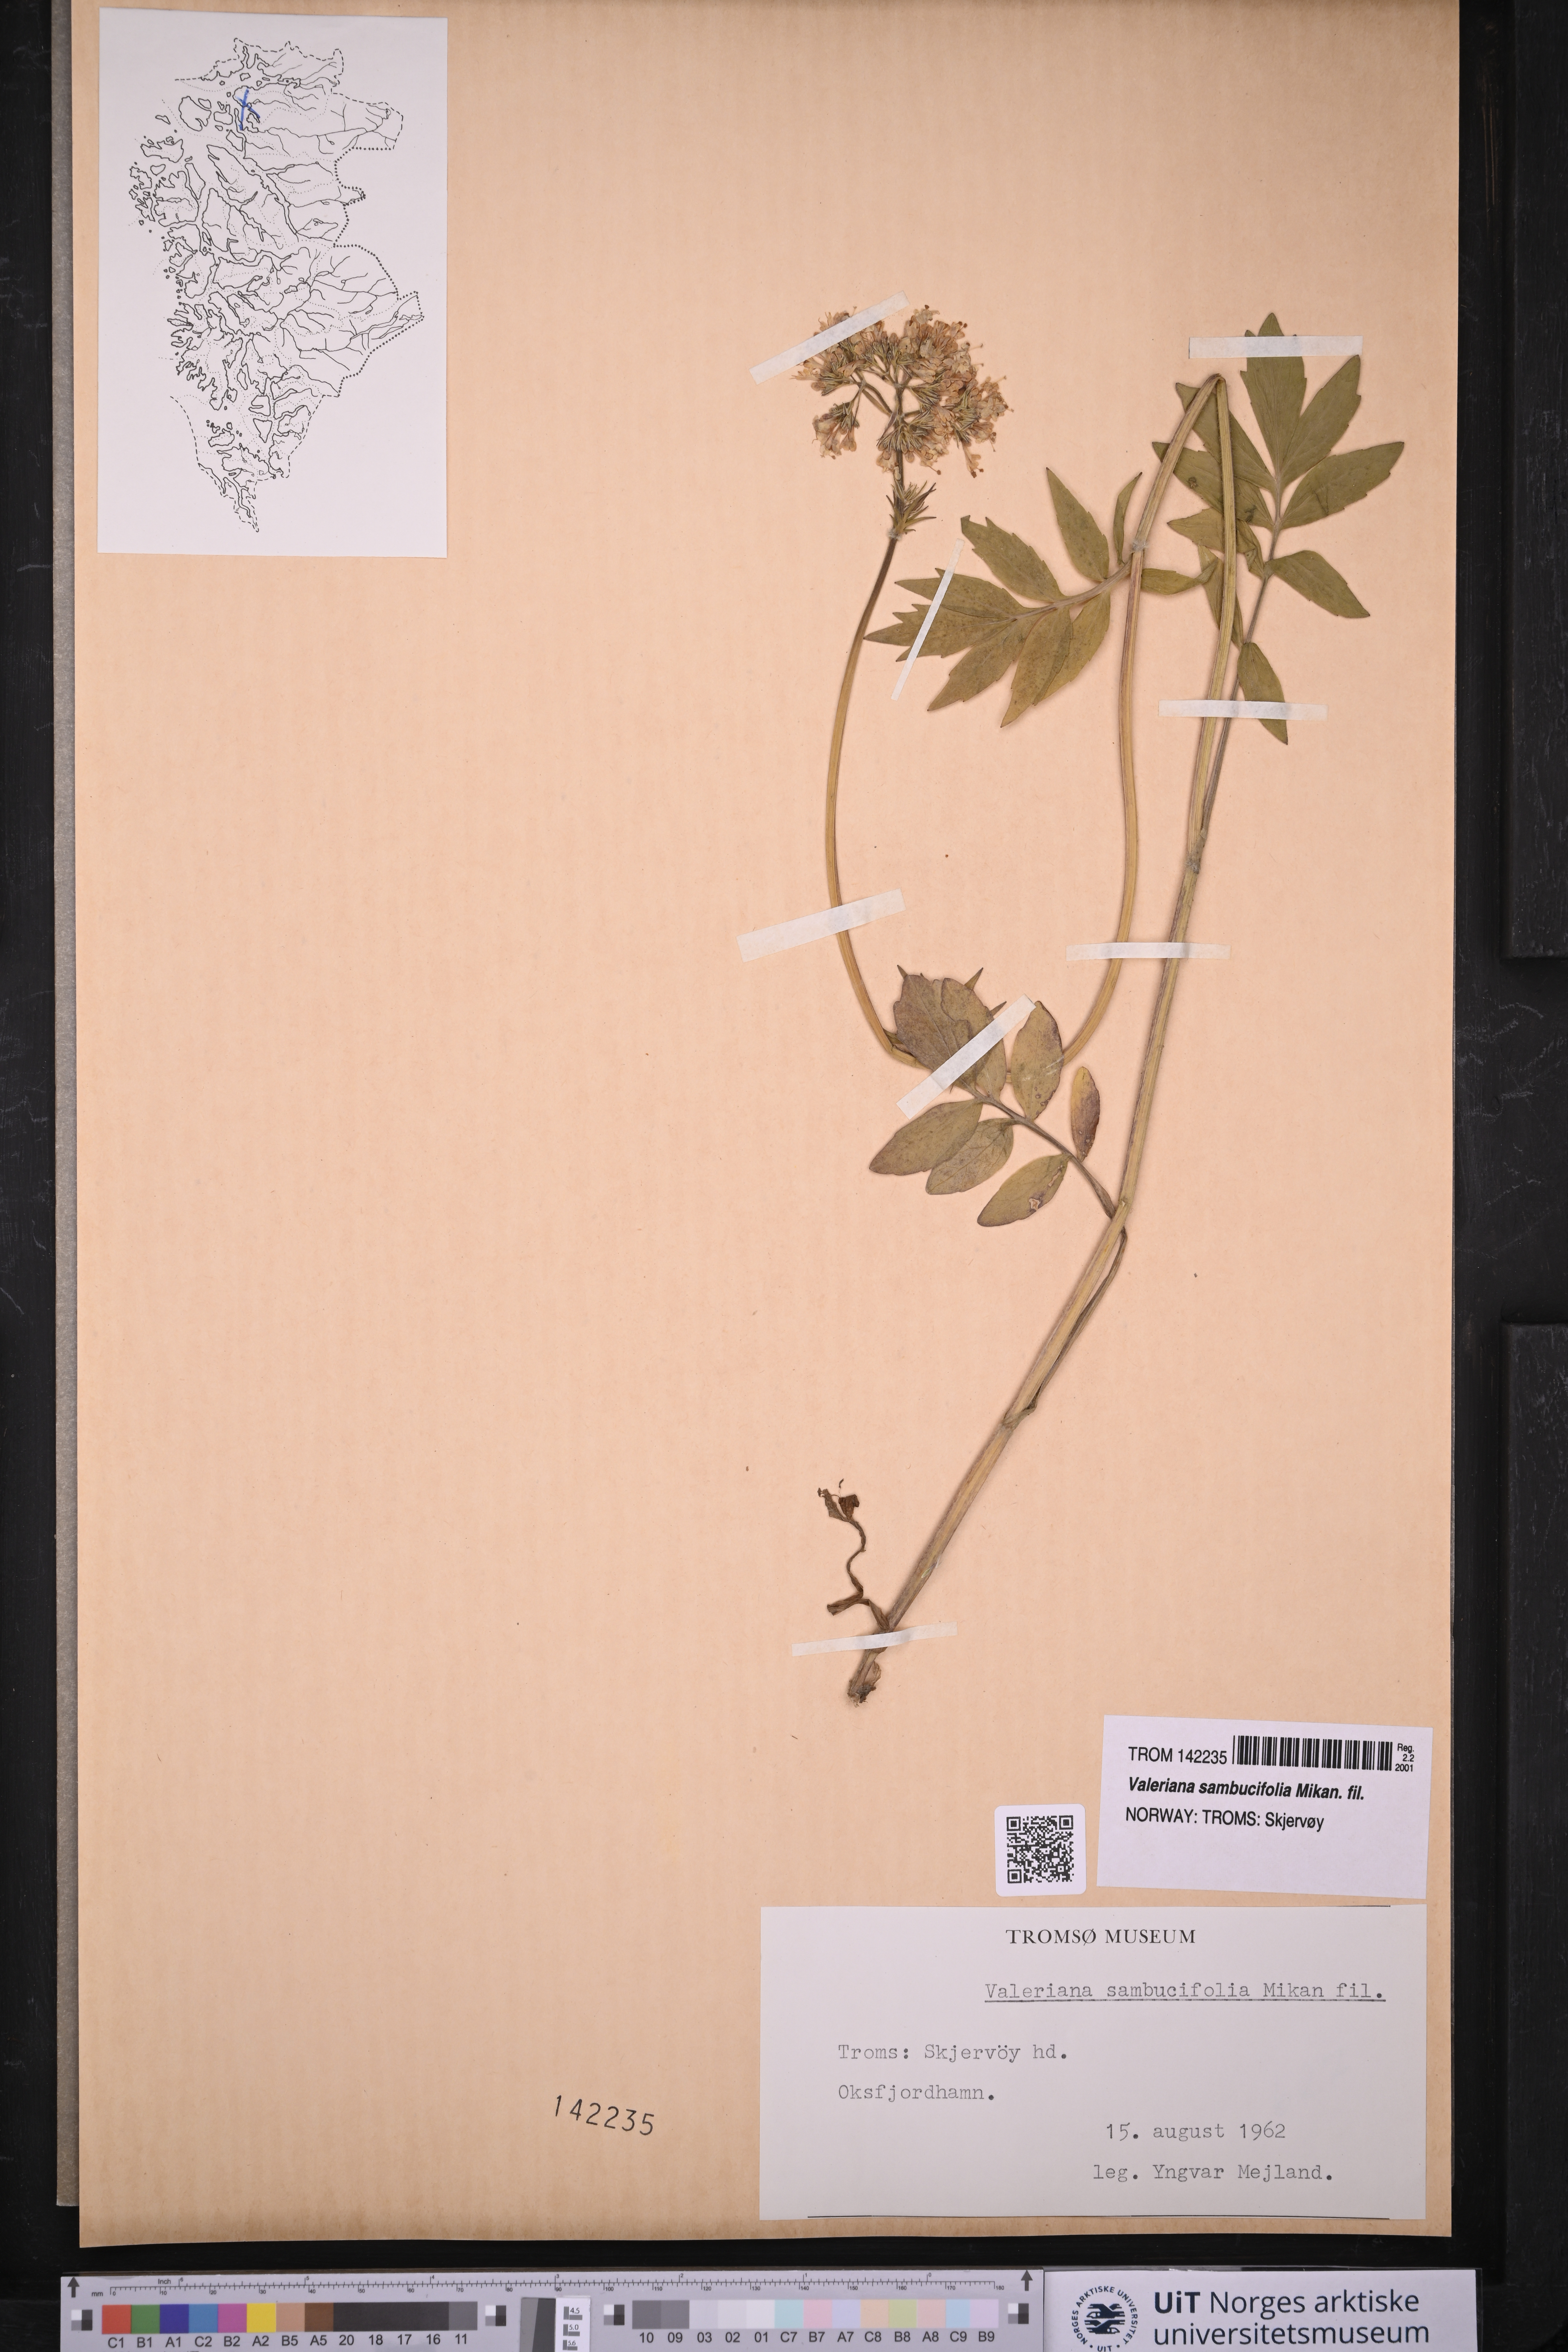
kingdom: Plantae
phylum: Tracheophyta
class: Magnoliopsida
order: Dipsacales
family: Caprifoliaceae
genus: Valeriana
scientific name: Valeriana excelsa
